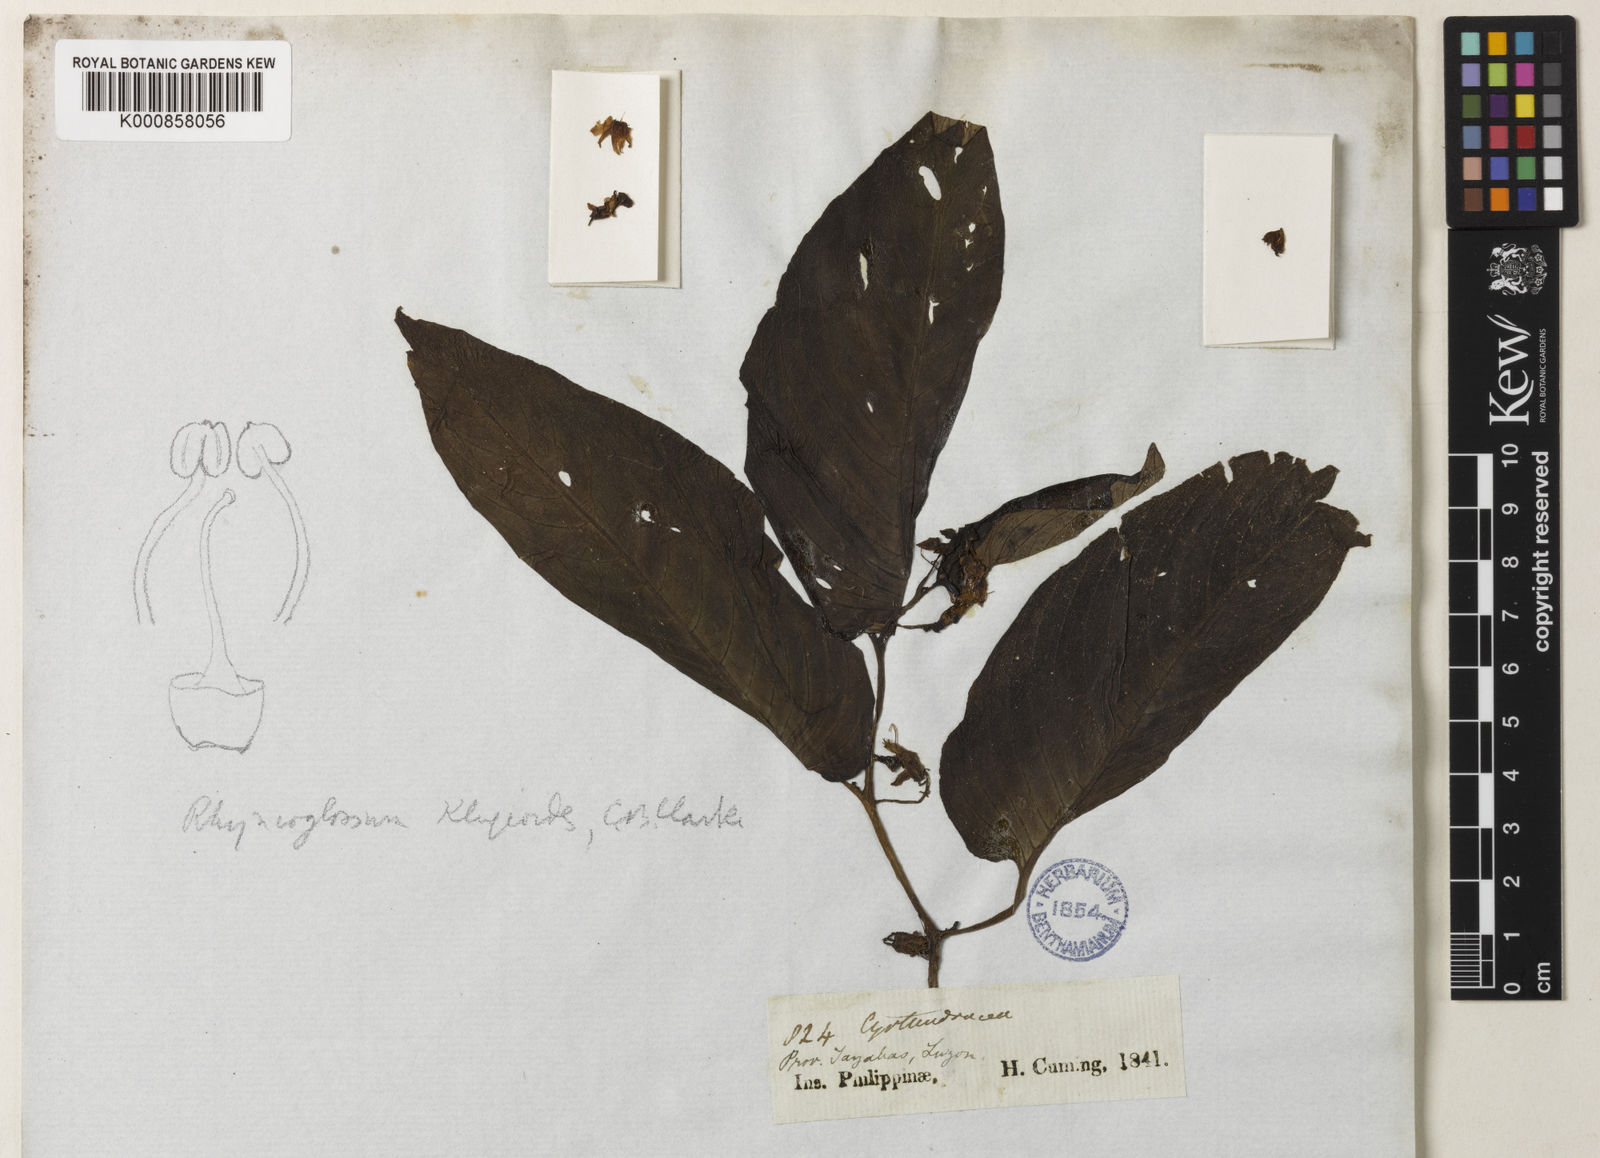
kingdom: Plantae
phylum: Tracheophyta
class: Magnoliopsida
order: Lamiales
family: Gesneriaceae
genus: Rhynchoglossum
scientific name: Rhynchoglossum klugioides
